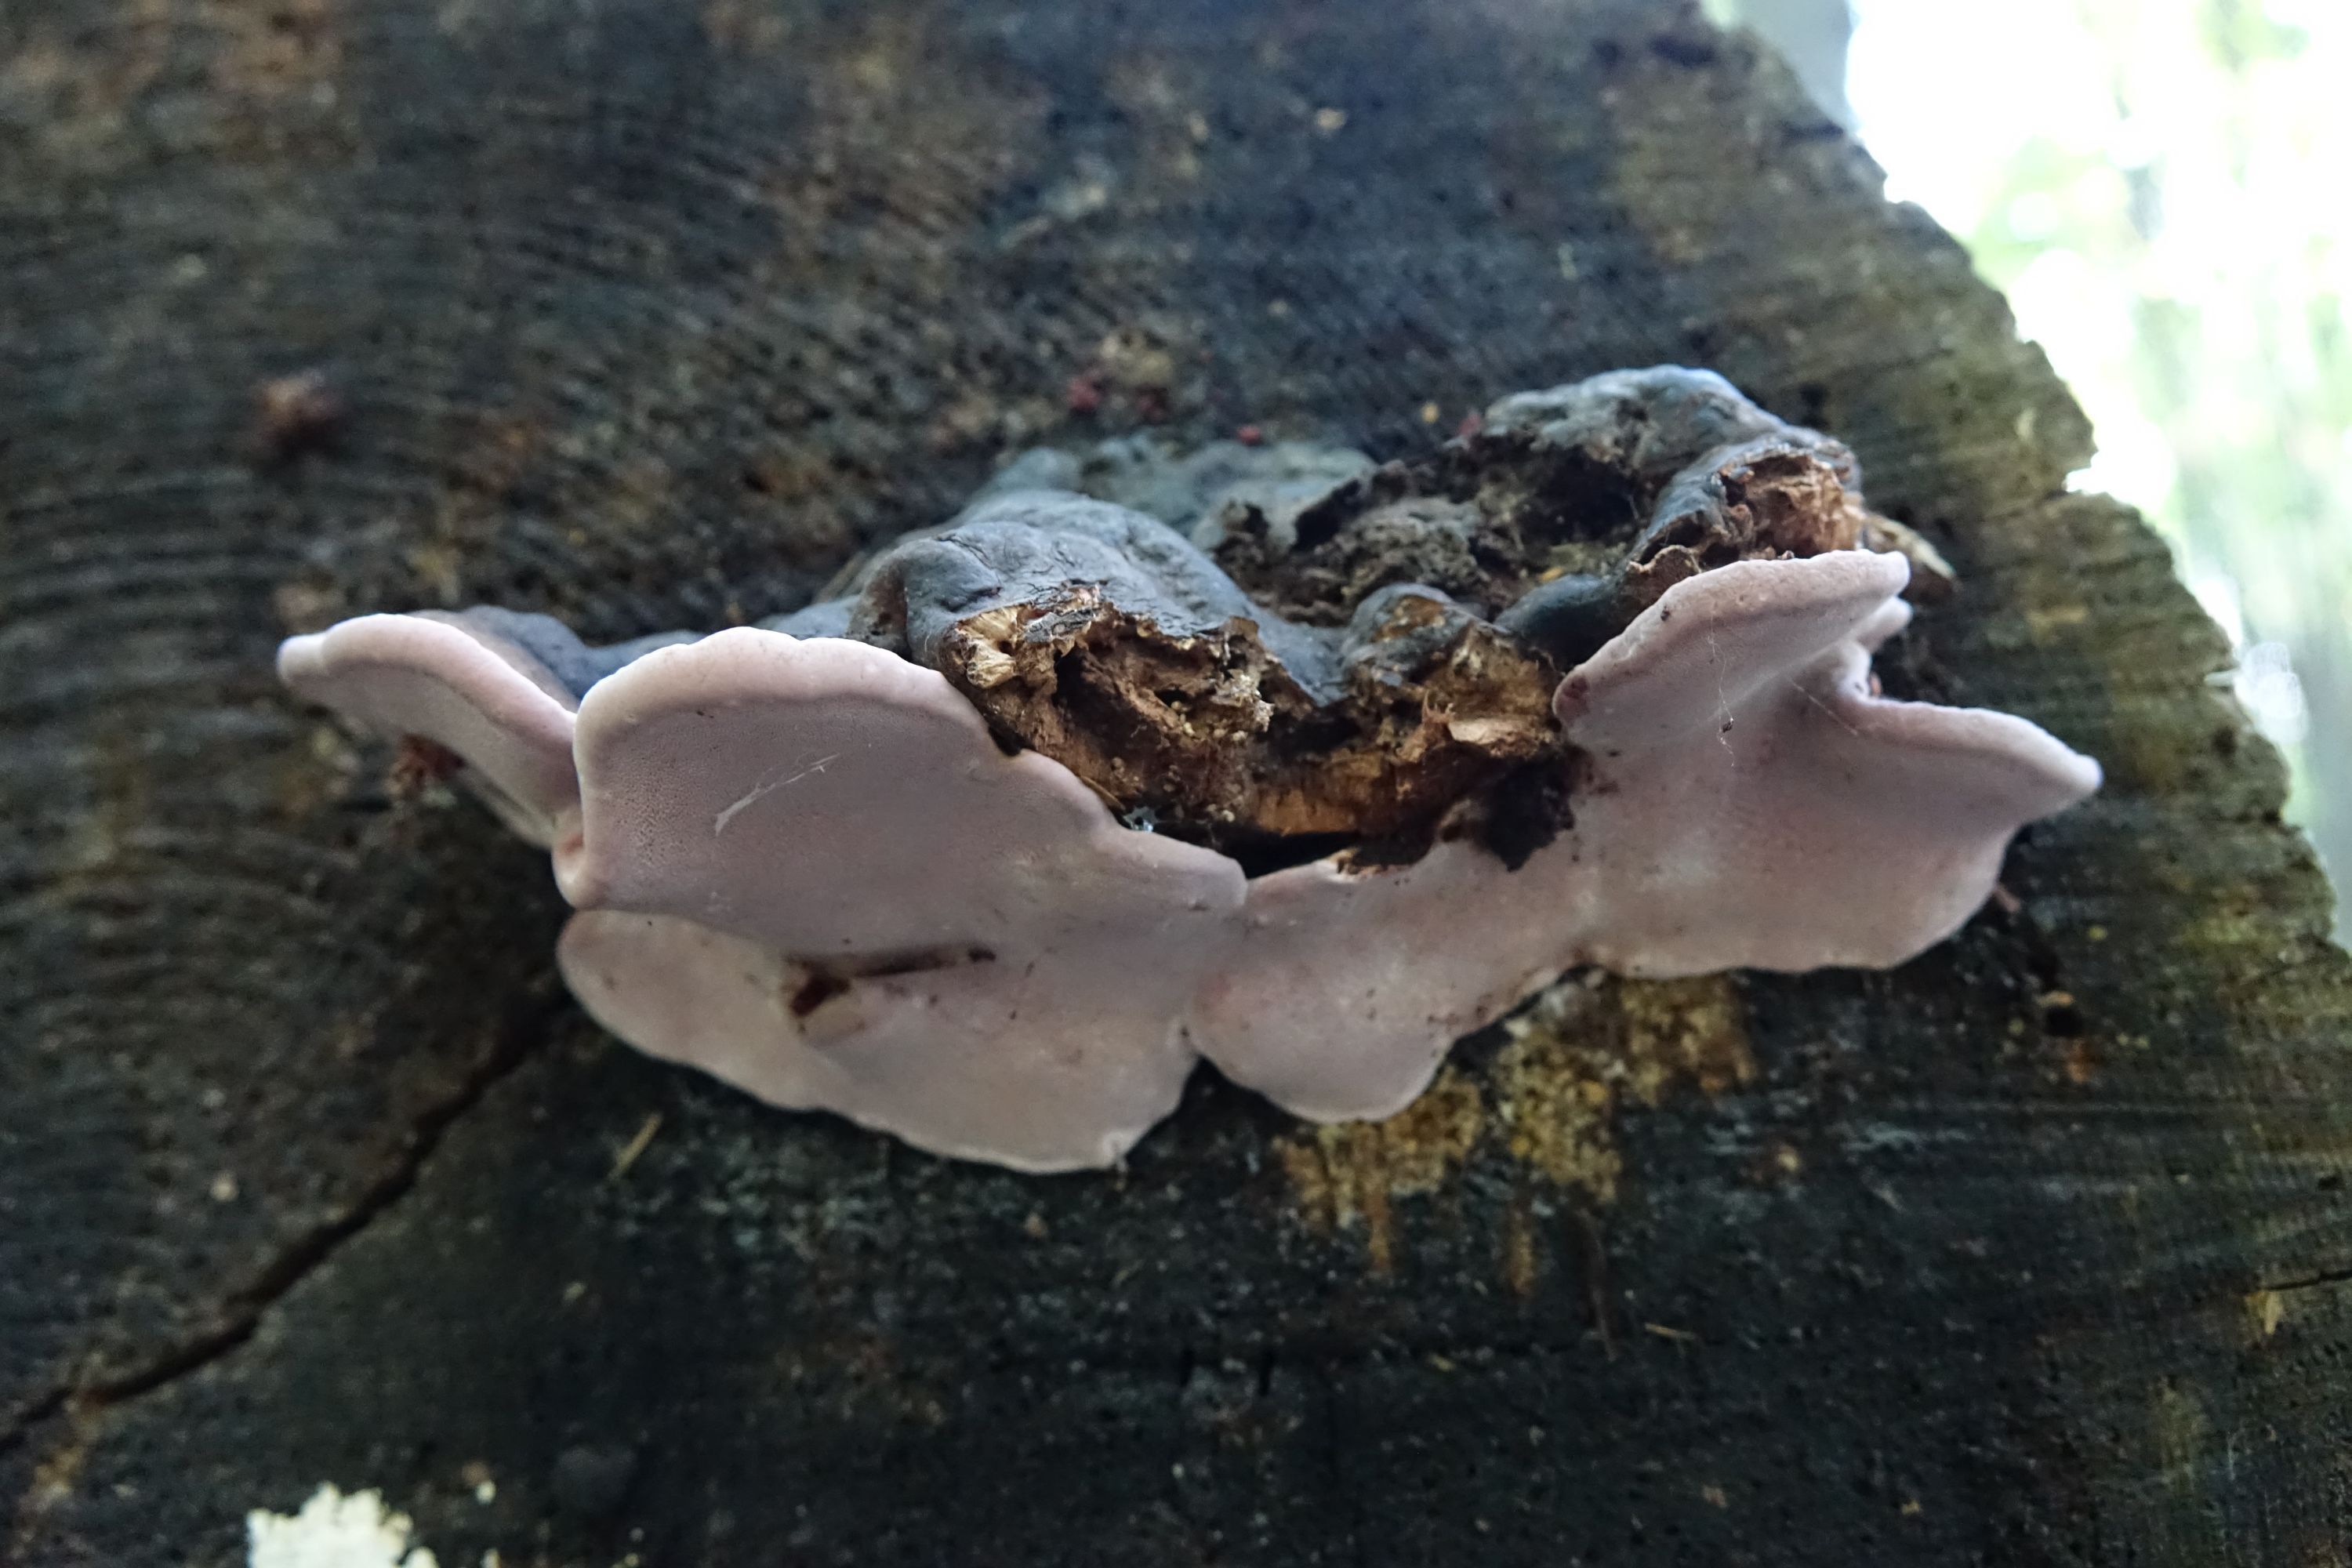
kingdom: Fungi
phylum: Basidiomycota
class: Agaricomycetes
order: Polyporales
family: Fomitopsidaceae
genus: Rhodofomes
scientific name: Rhodofomes roseus
